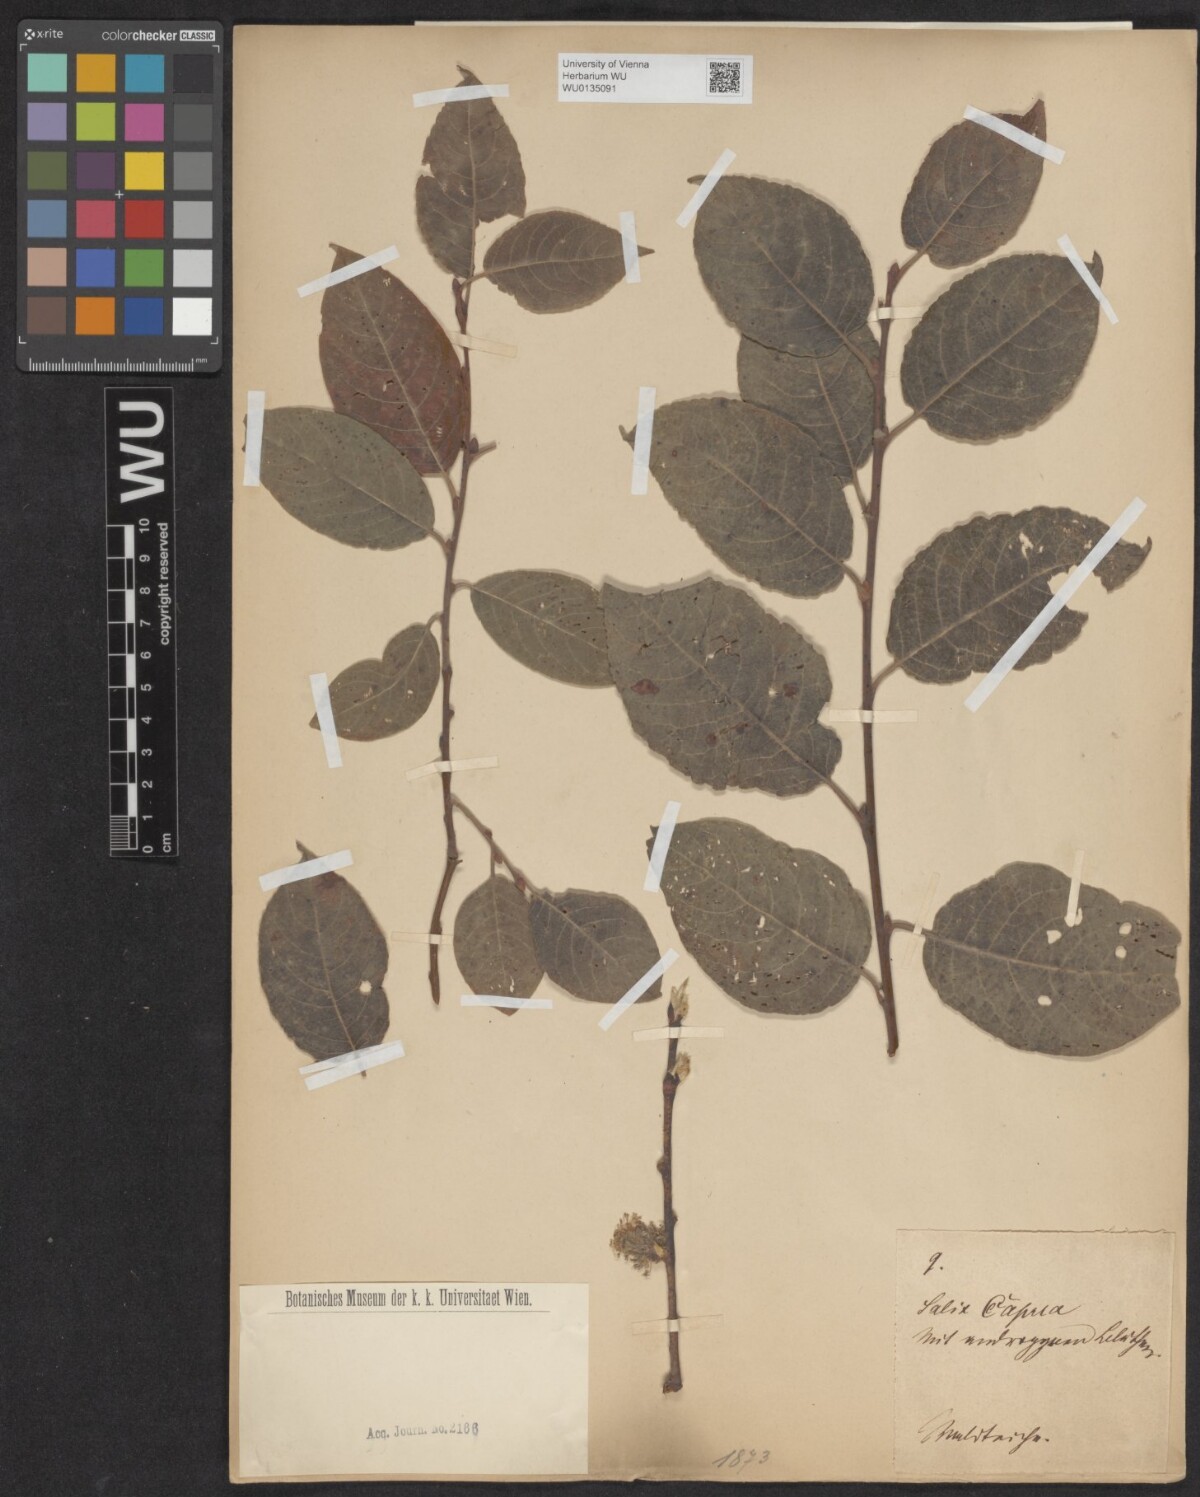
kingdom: Plantae
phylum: Tracheophyta
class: Magnoliopsida
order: Malpighiales
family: Salicaceae
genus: Salix
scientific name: Salix caprea
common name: Goat willow
